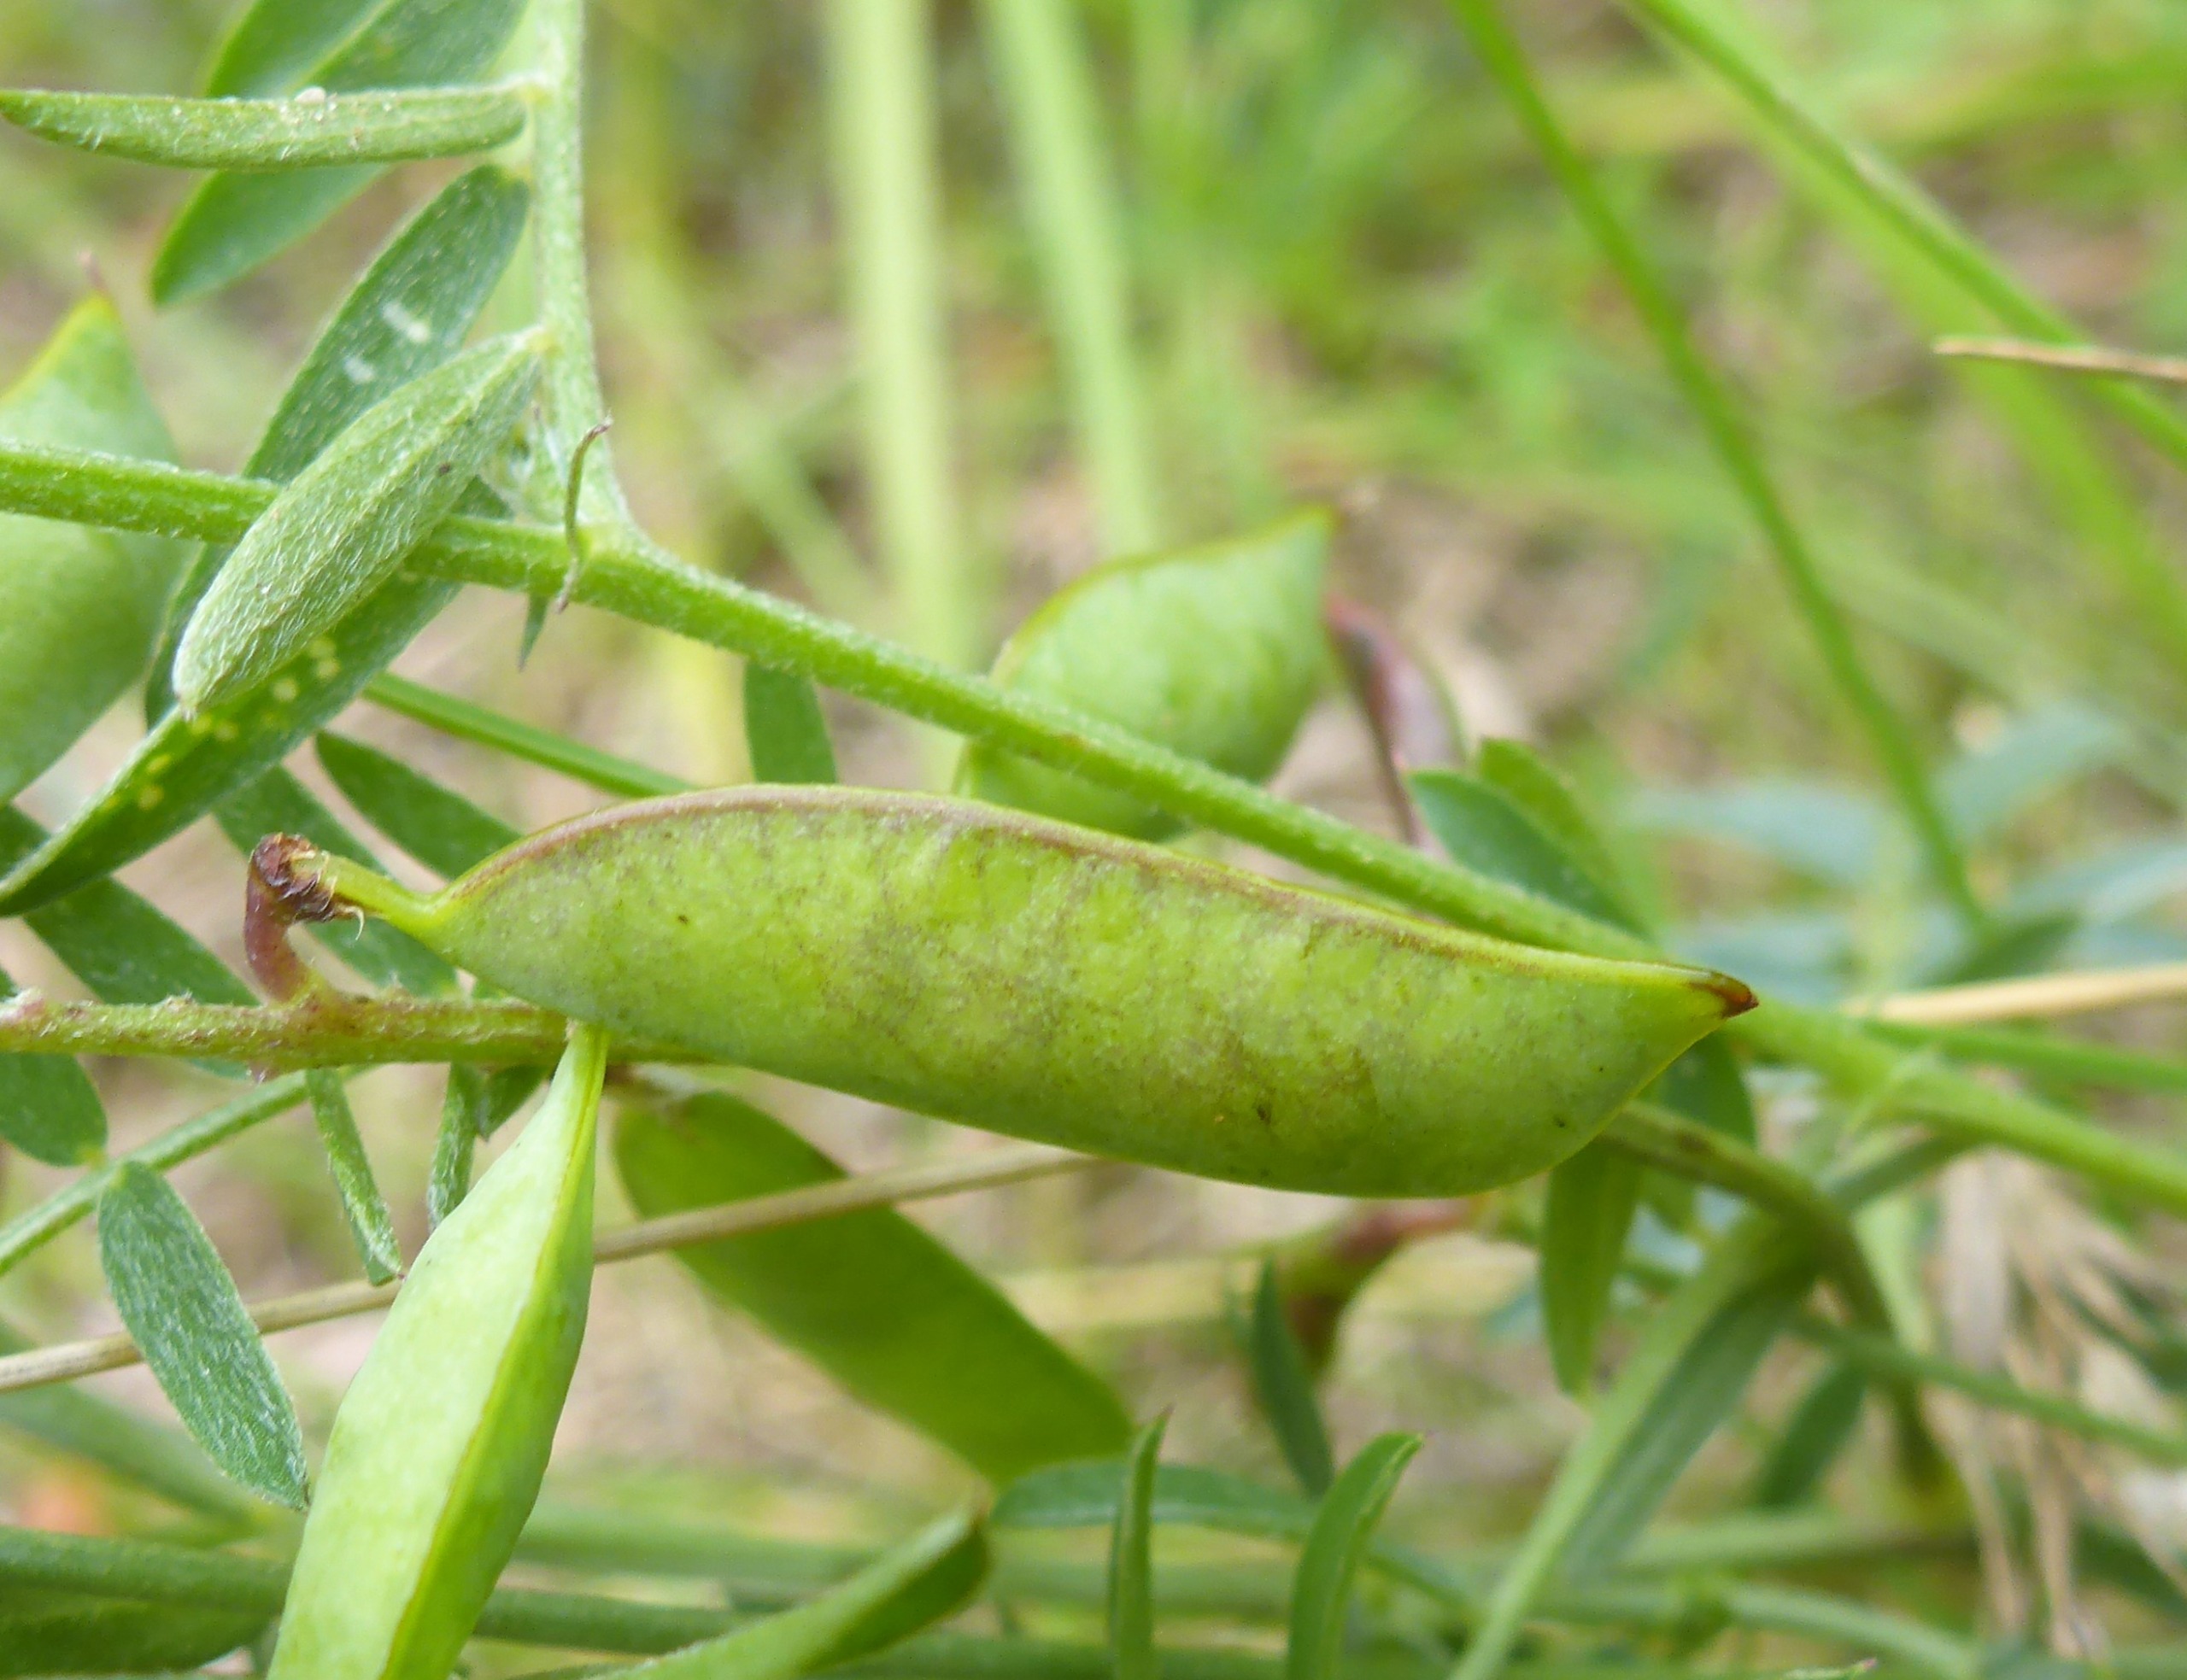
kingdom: Plantae
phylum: Tracheophyta
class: Magnoliopsida
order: Fabales
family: Fabaceae
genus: Vicia
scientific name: Vicia cracca
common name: Muse-vikke
